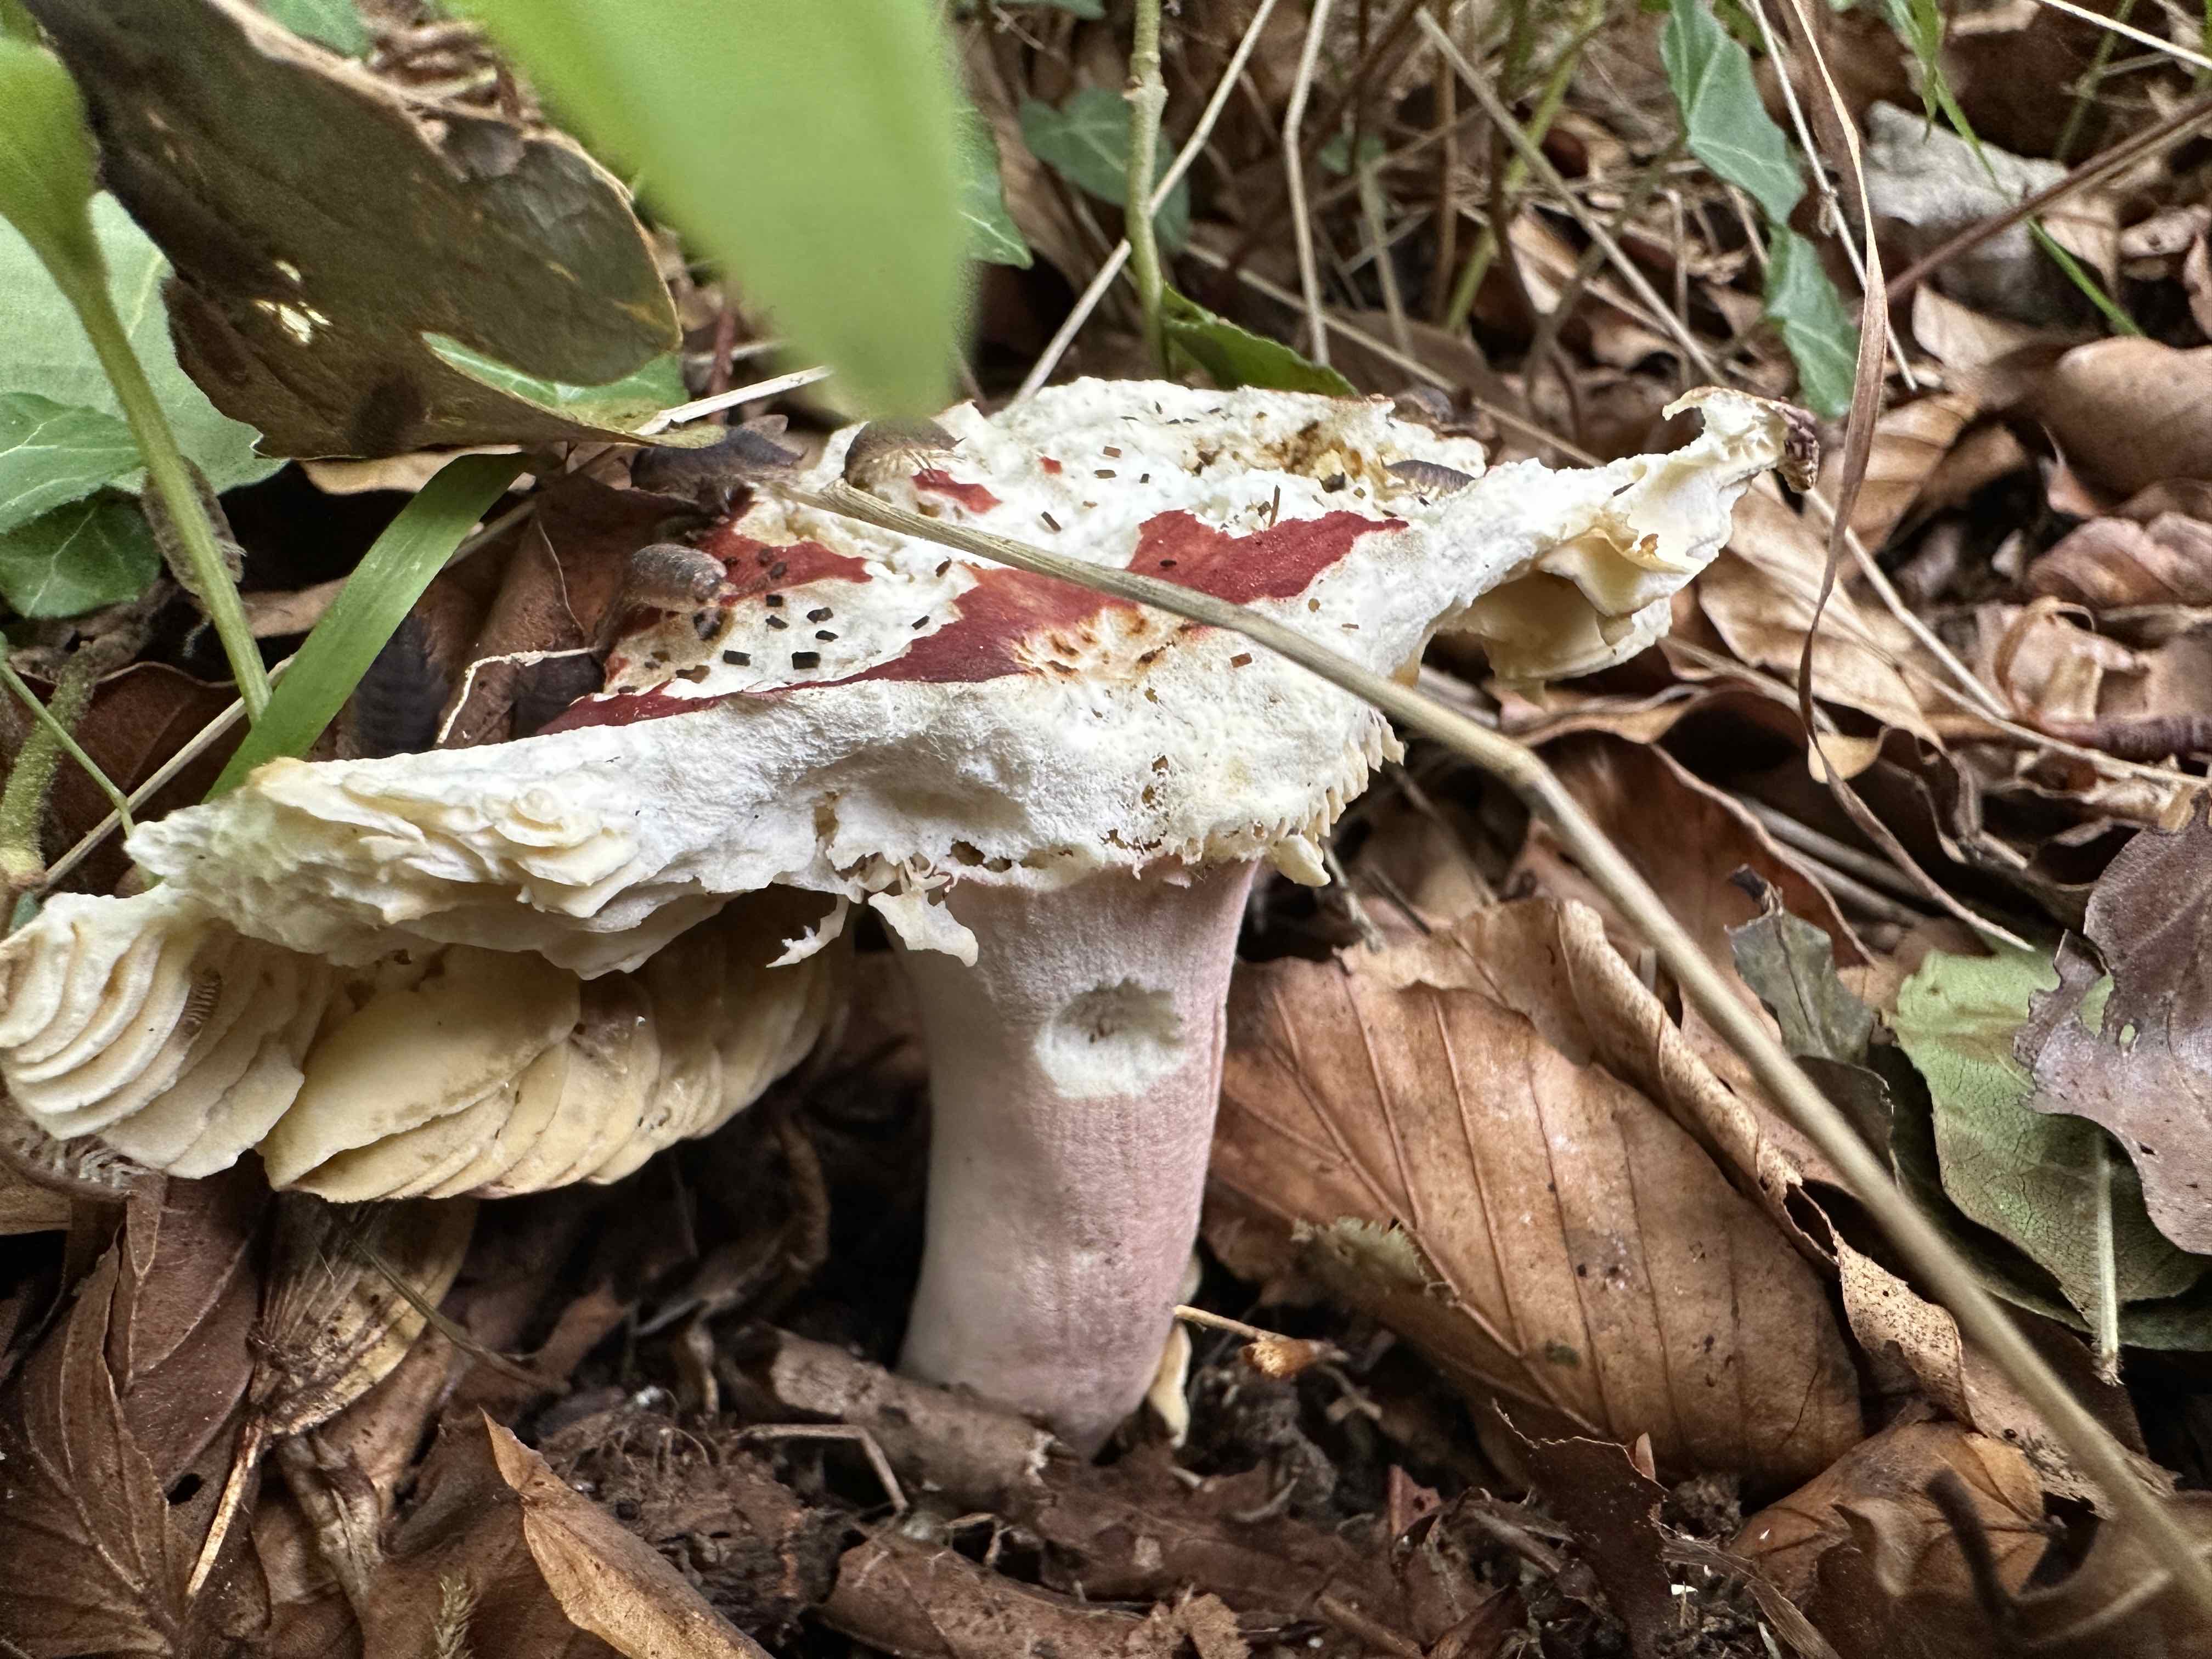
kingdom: Fungi
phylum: Basidiomycota
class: Agaricomycetes
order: Russulales
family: Russulaceae
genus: Russula
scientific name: Russula olivacea
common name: stor skørhat
